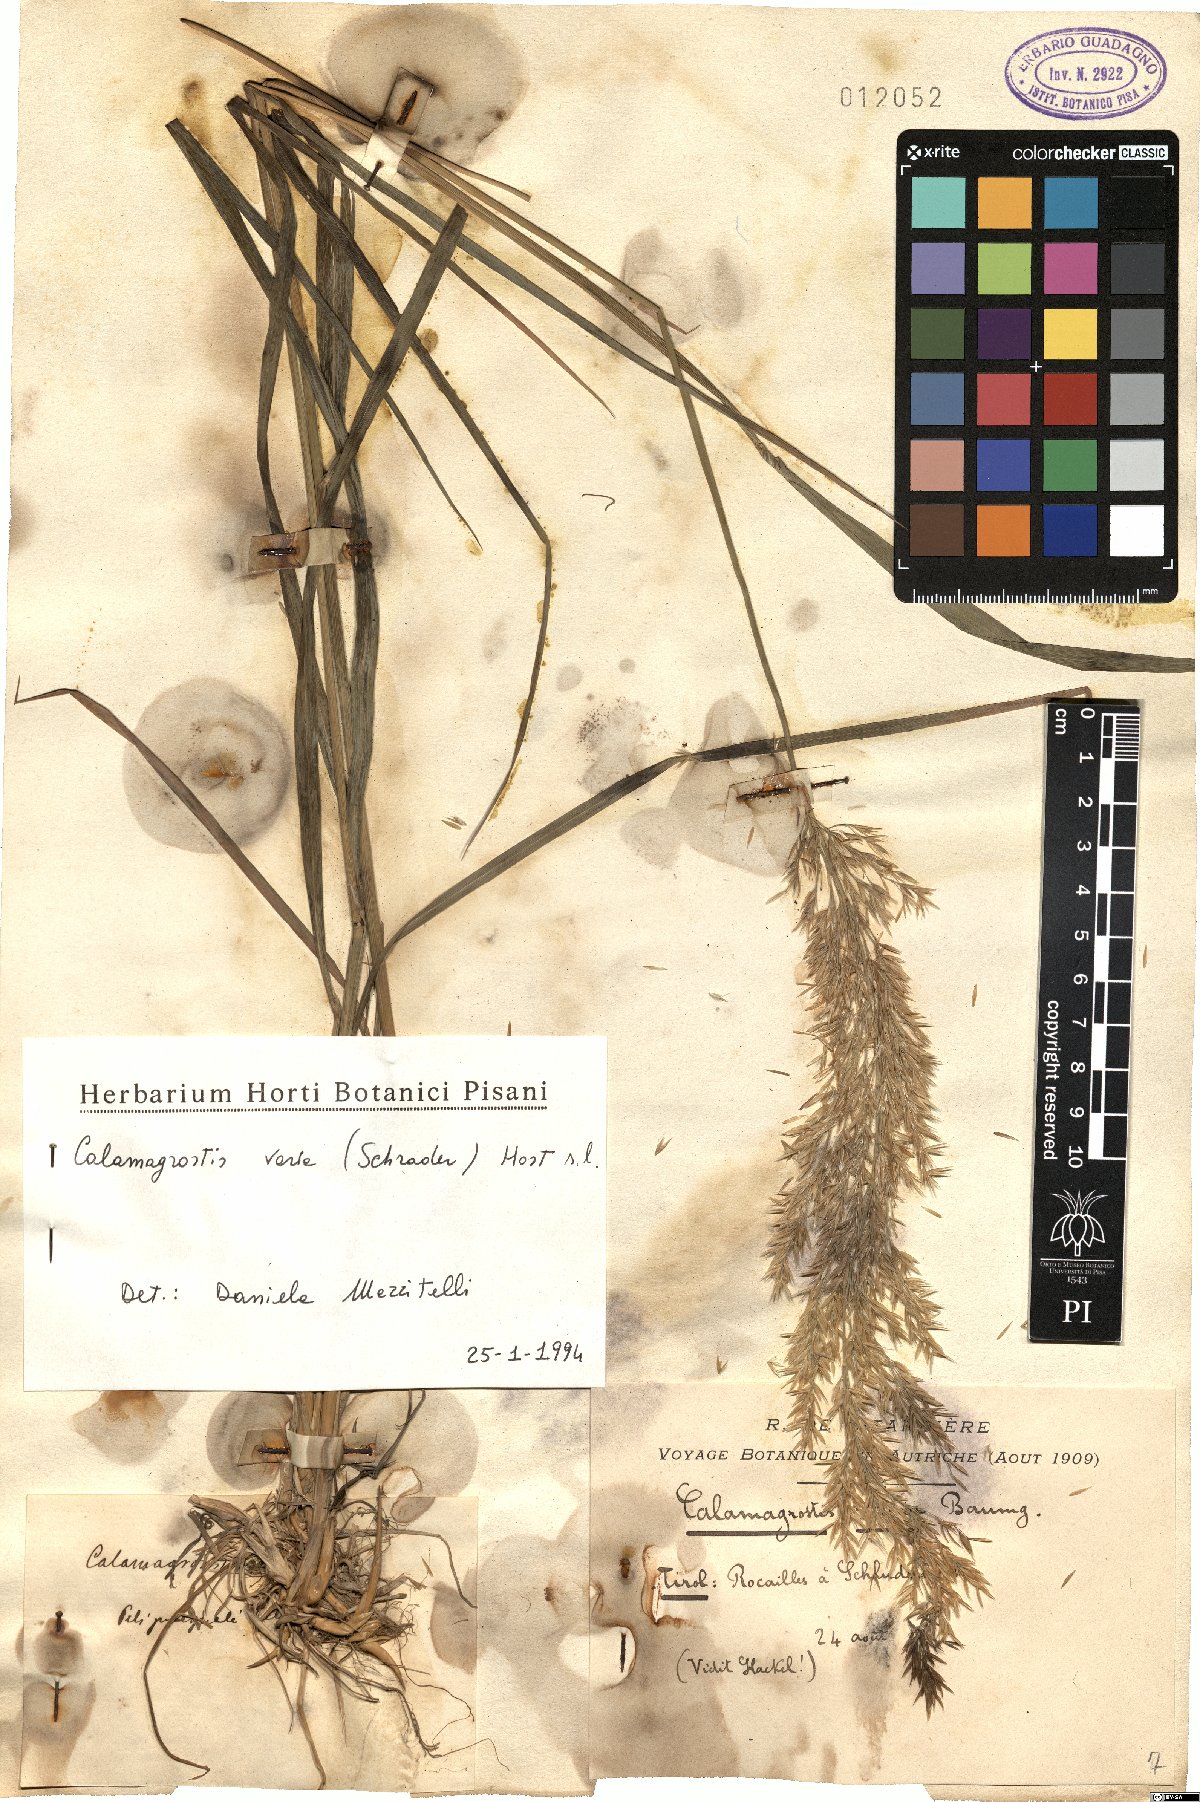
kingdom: Plantae
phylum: Tracheophyta
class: Liliopsida
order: Poales
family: Poaceae
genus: Calamagrostis
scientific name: Calamagrostis varia
